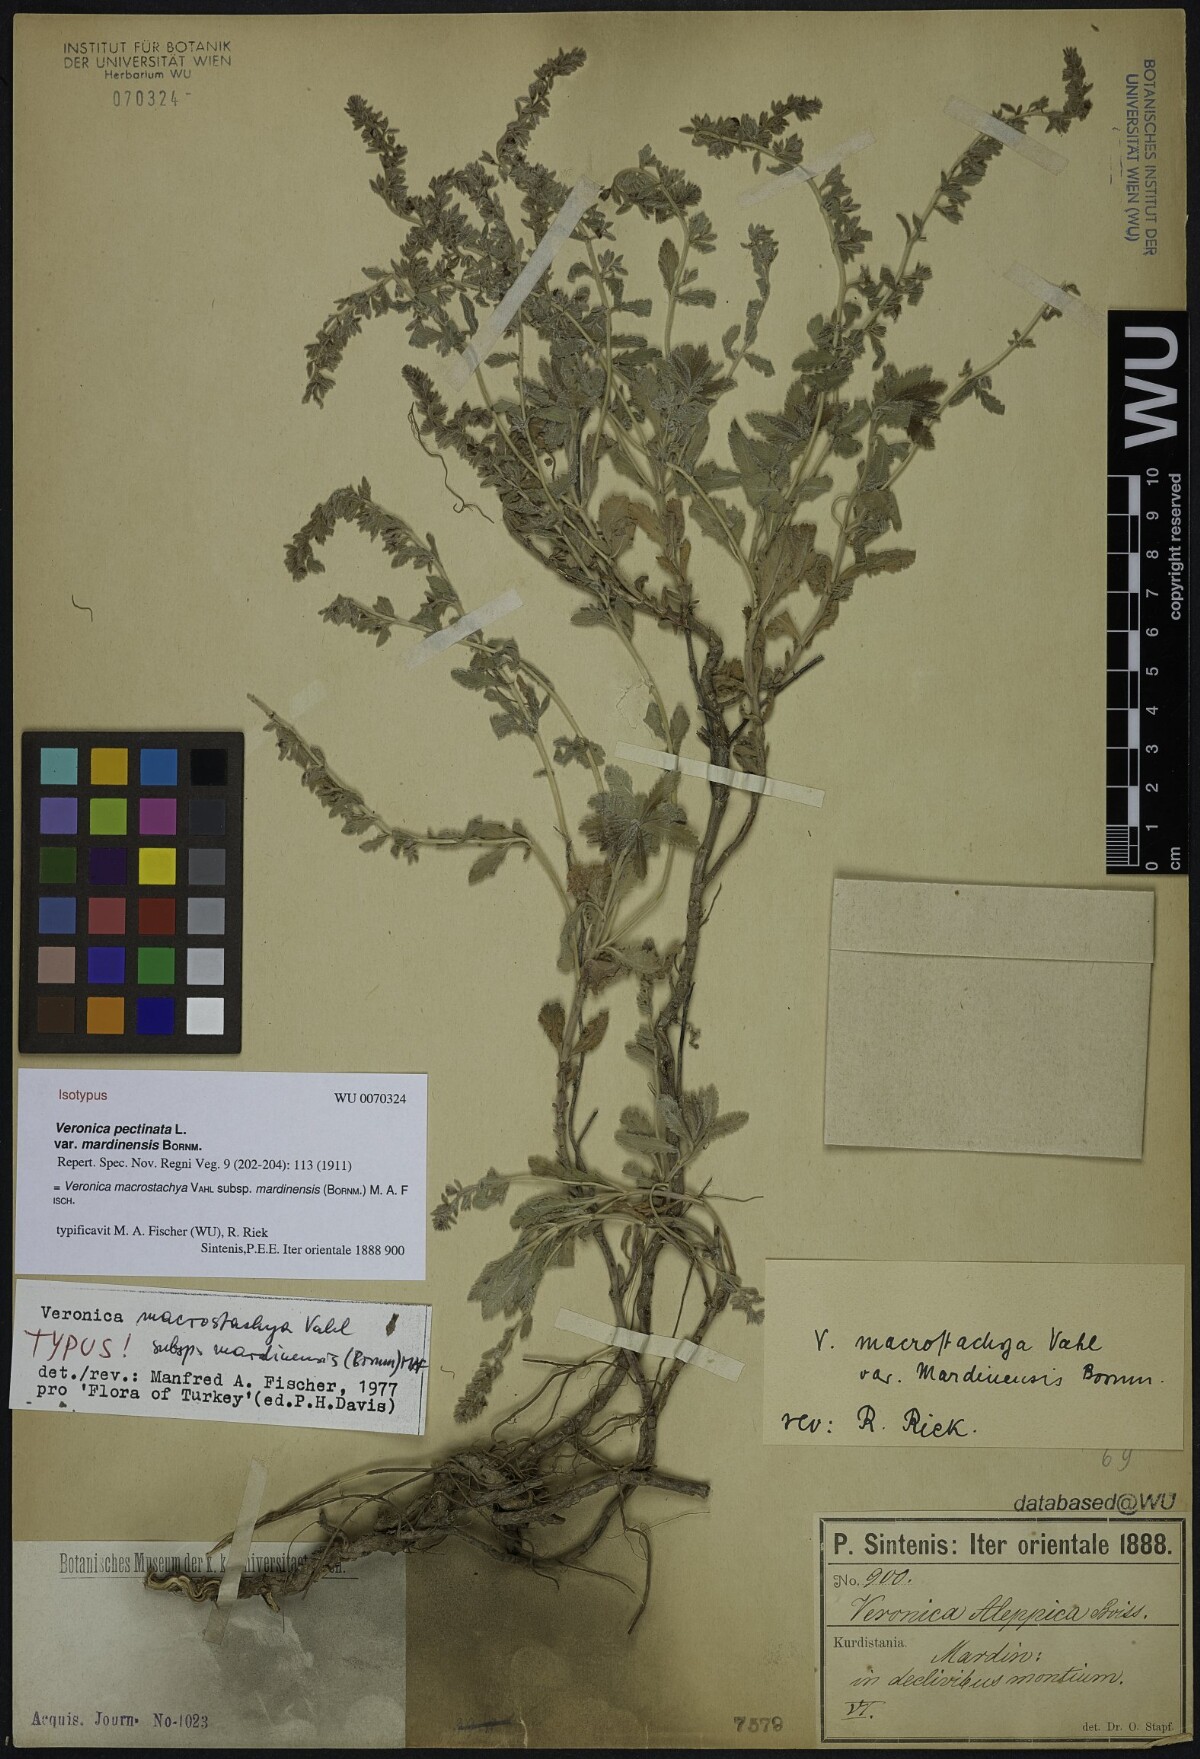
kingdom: Plantae
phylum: Tracheophyta
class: Magnoliopsida
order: Lamiales
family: Plantaginaceae
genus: Veronica
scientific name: Veronica macrostachya
